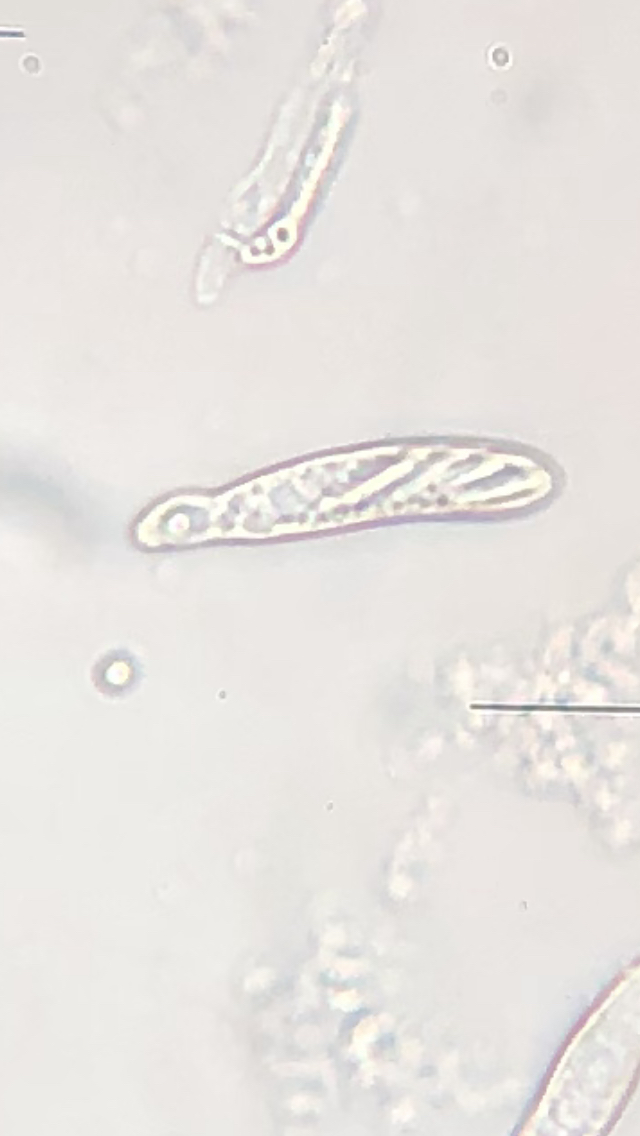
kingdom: Fungi
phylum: Ascomycota
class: Leotiomycetes
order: Helotiales
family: Pezizellaceae
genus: Psilachnum
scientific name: Psilachnum chrysostigmum
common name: gulnende hårskive
